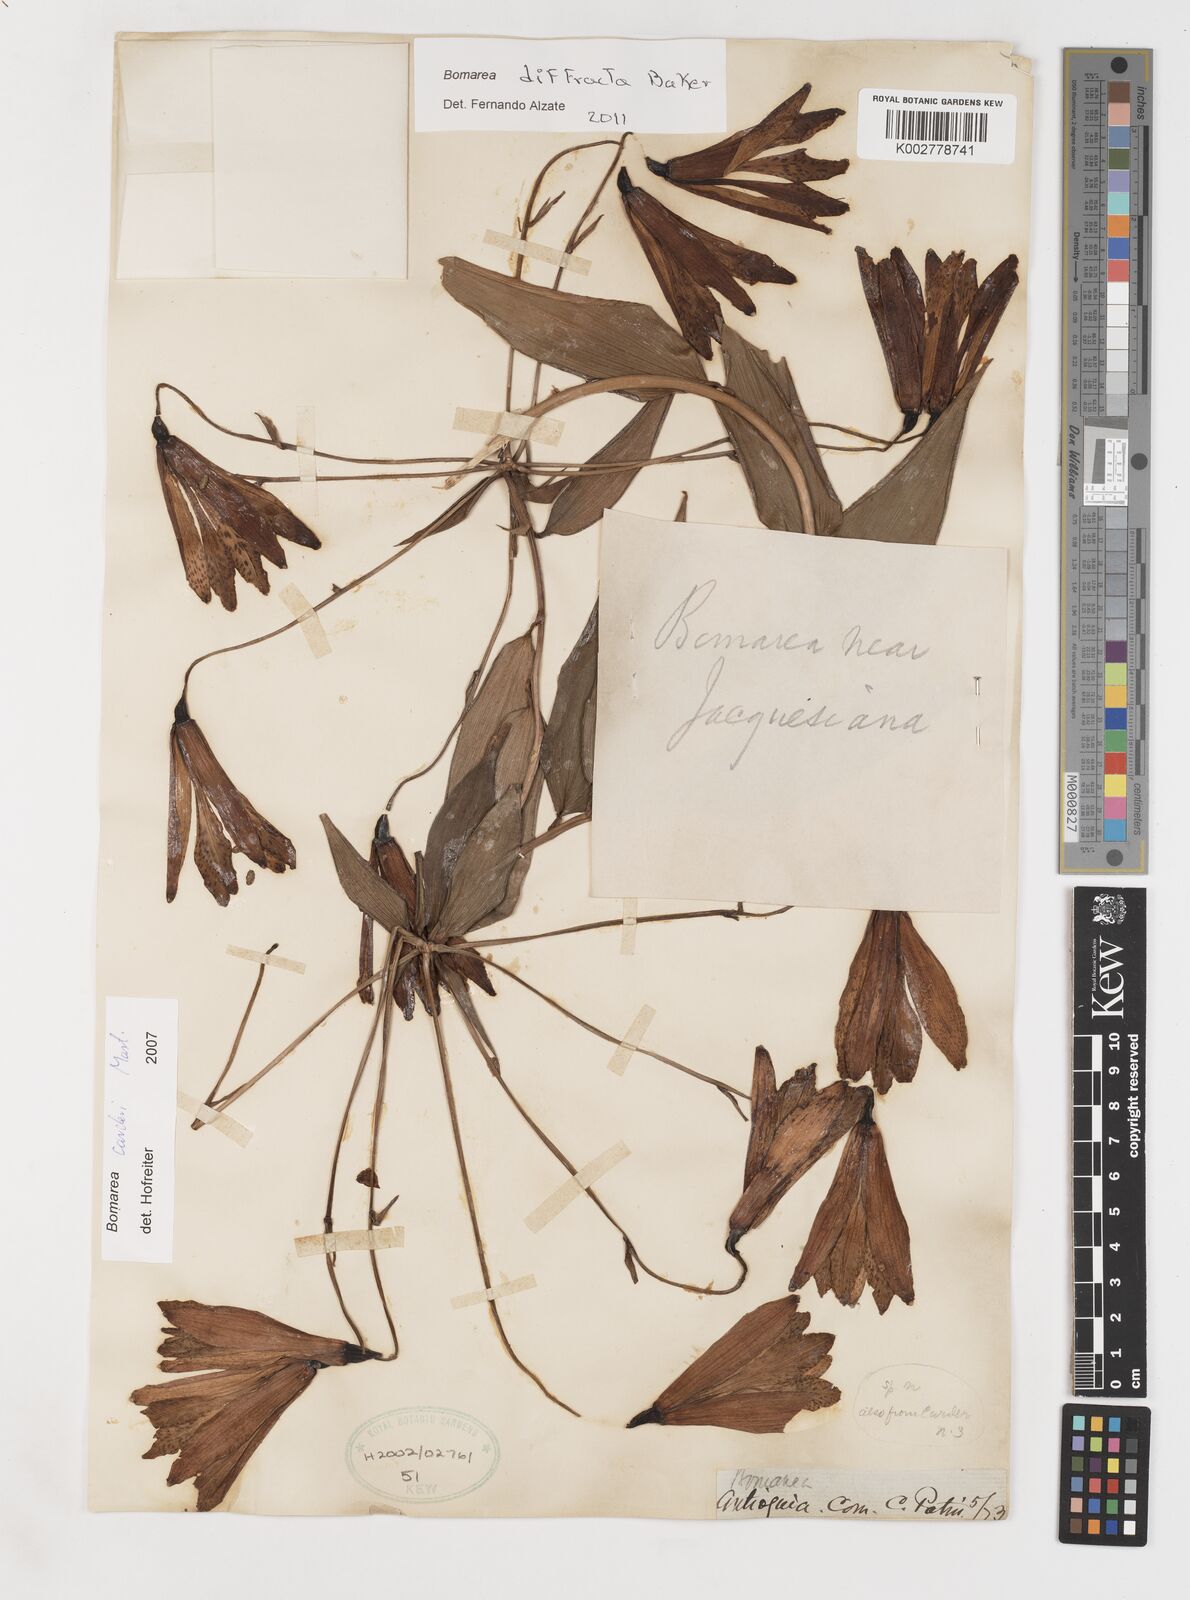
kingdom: Plantae
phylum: Tracheophyta
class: Liliopsida
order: Liliales
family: Alstroemeriaceae
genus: Bomarea
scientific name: Bomarea carderi
